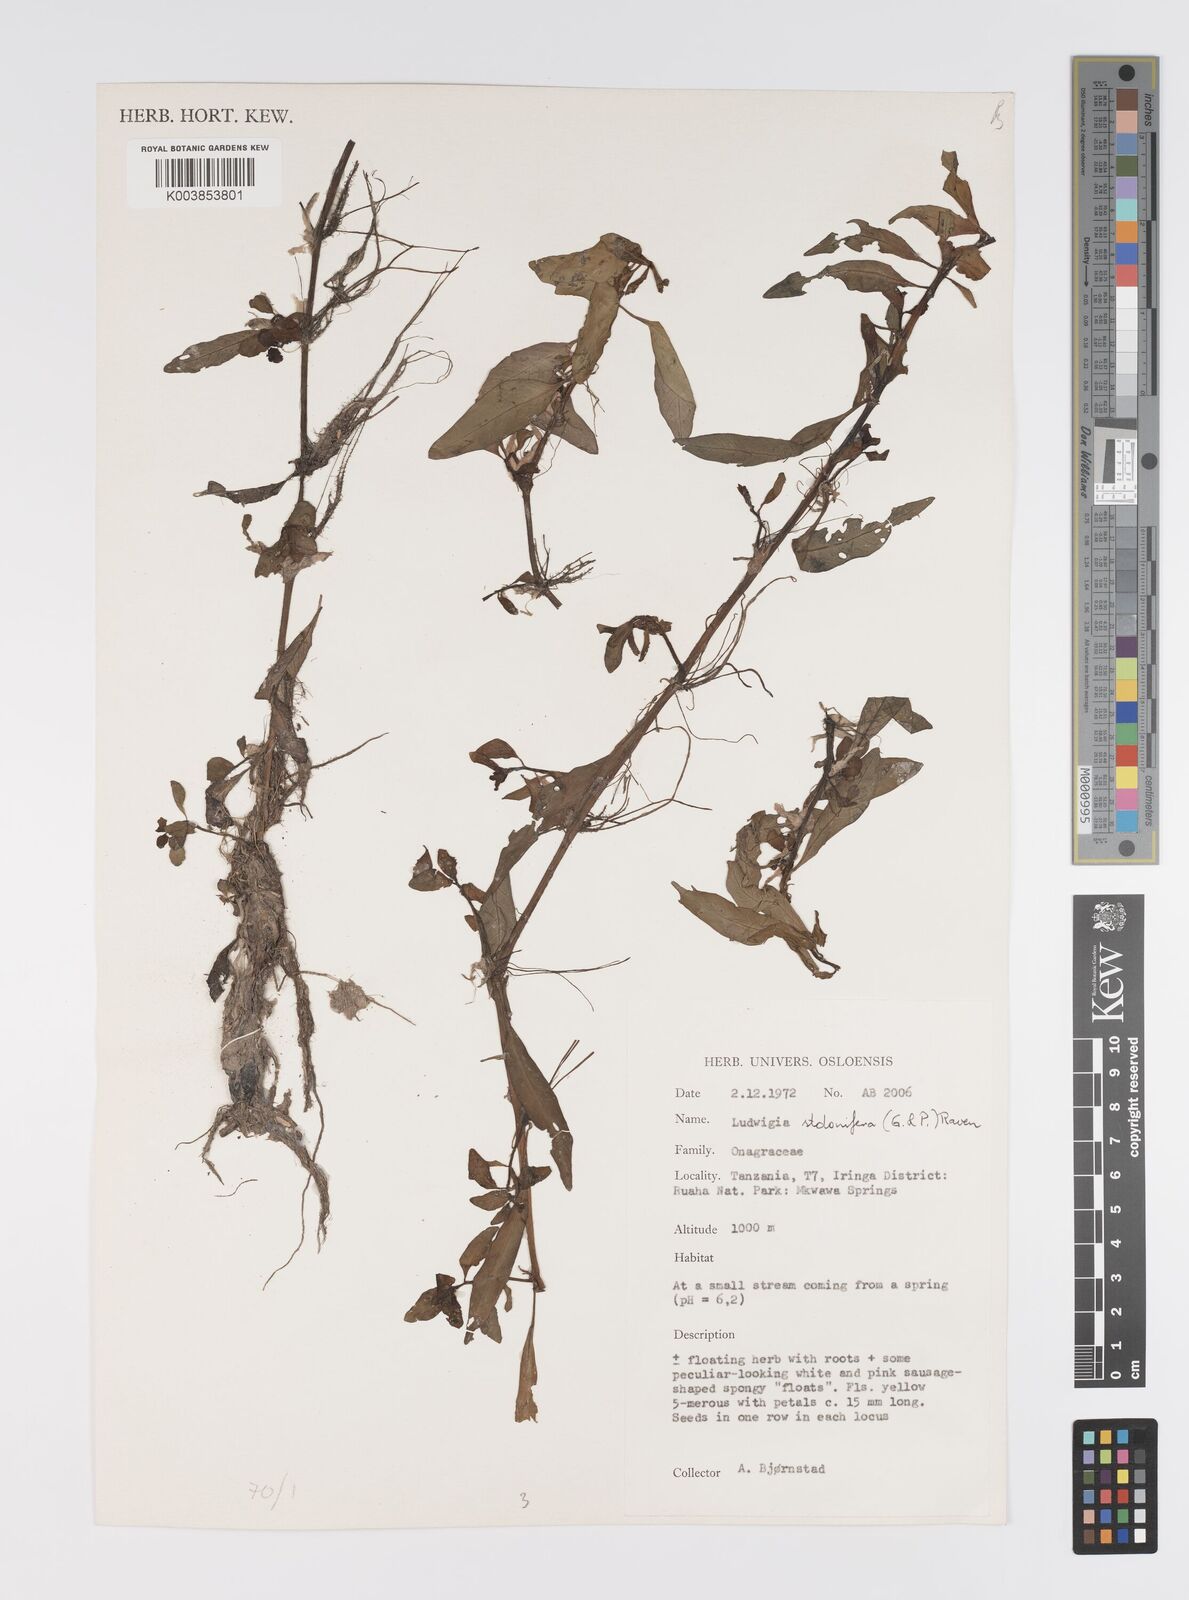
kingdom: Plantae
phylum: Tracheophyta
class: Magnoliopsida
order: Myrtales
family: Onagraceae
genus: Ludwigia
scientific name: Ludwigia adscendens
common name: Creeping water primrose
